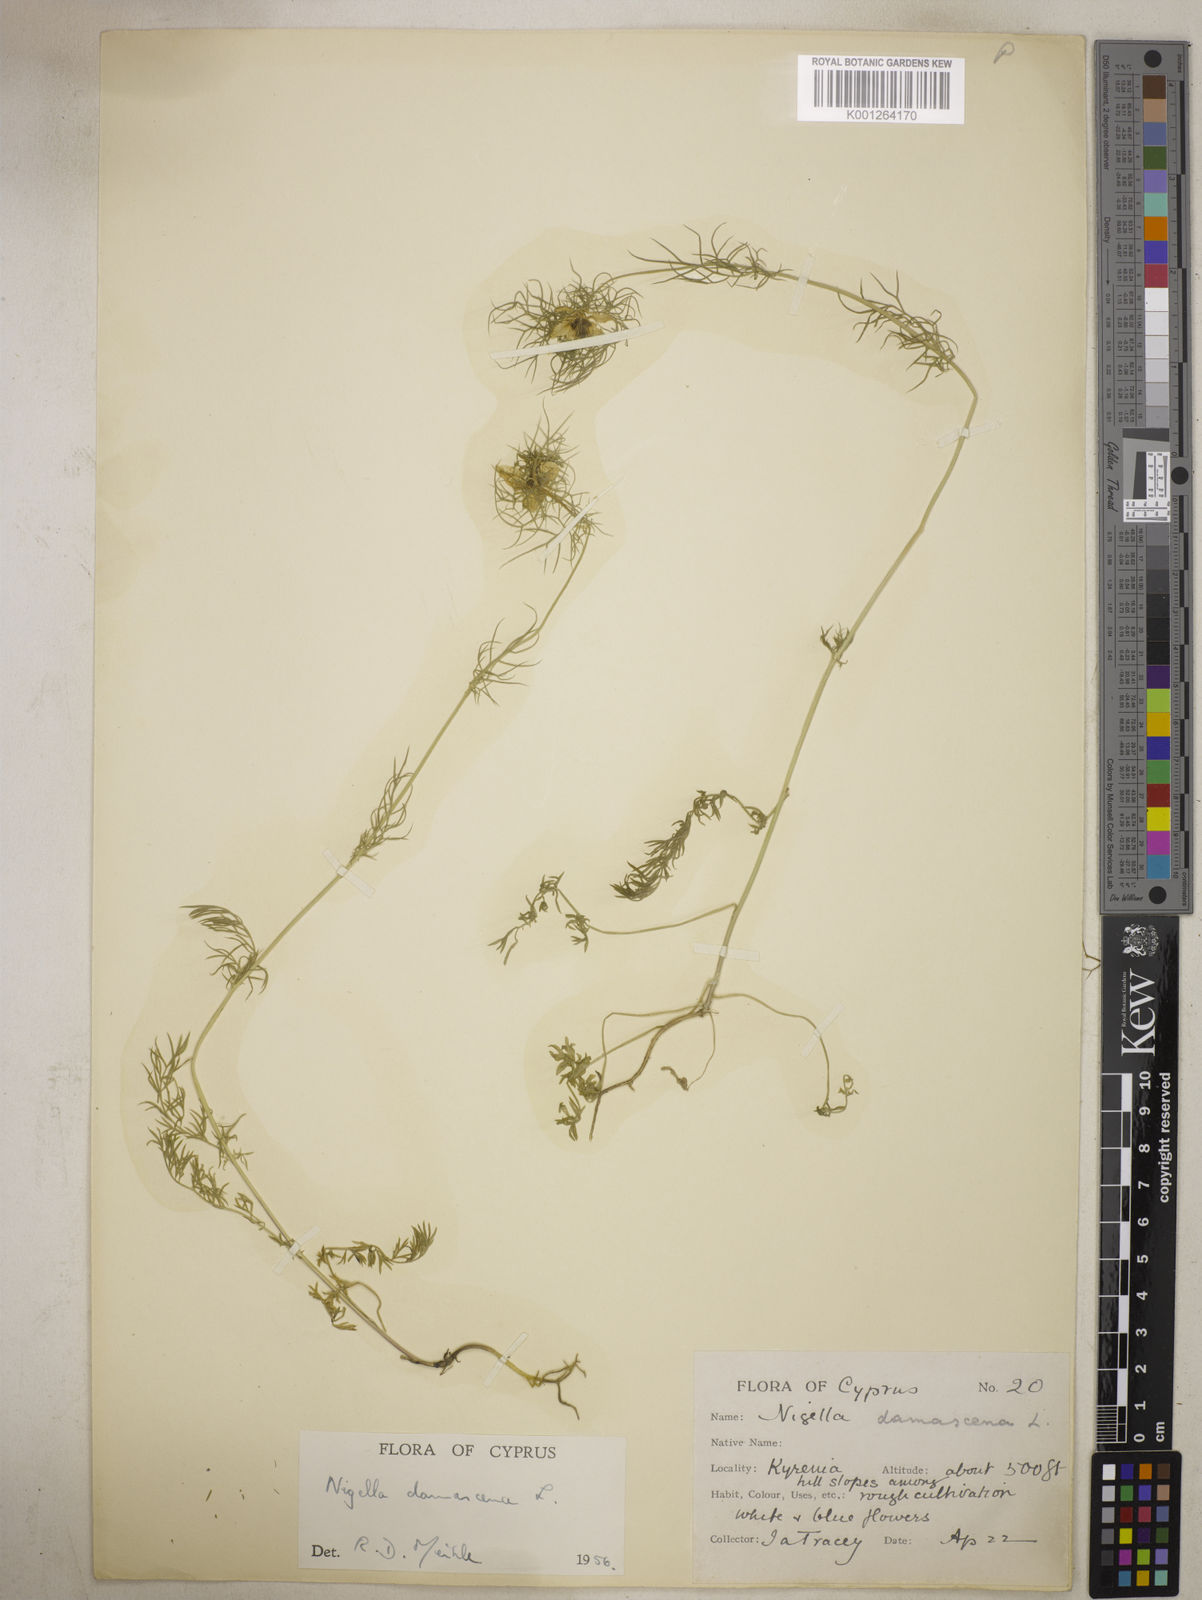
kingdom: Plantae
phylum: Tracheophyta
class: Magnoliopsida
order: Ranunculales
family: Ranunculaceae
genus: Nigella
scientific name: Nigella damascena
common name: Love-in-a-mist
